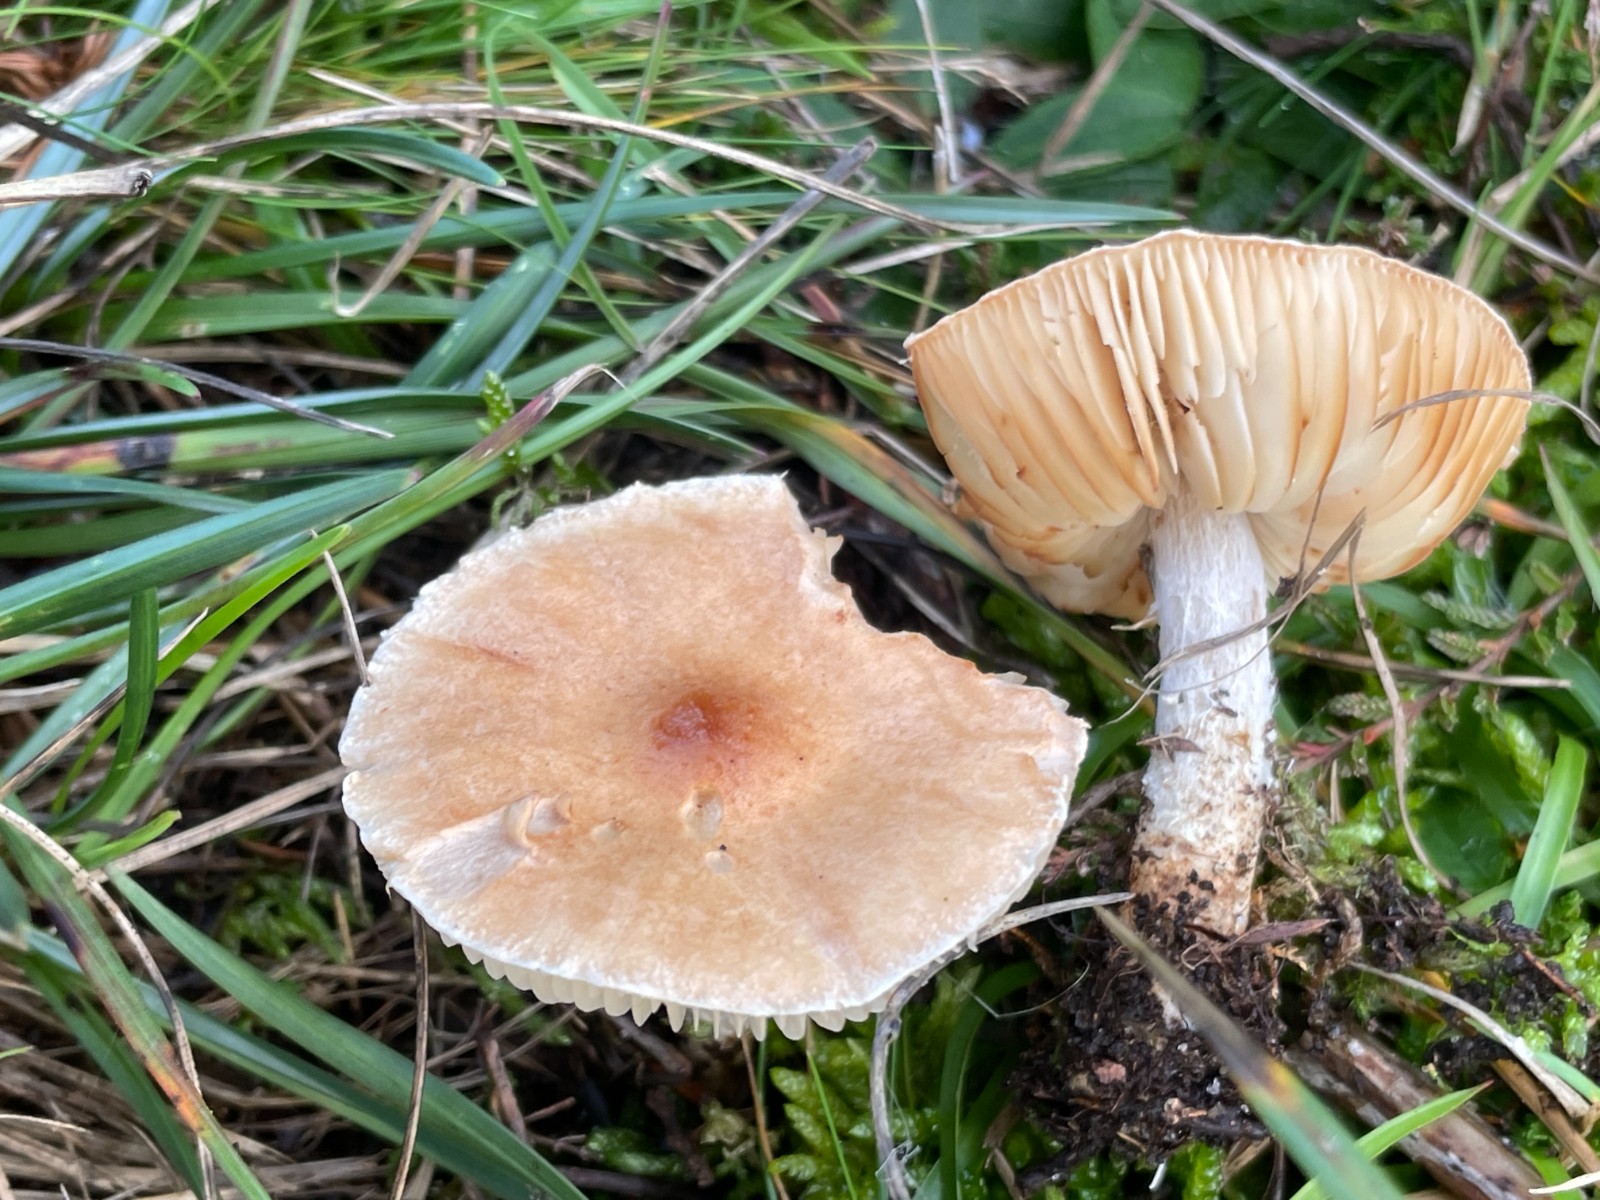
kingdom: Fungi
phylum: Basidiomycota
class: Agaricomycetes
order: Agaricales
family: Agaricaceae
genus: Lepiota
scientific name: Lepiota oreadiformis
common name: blegbrun parasolhat
